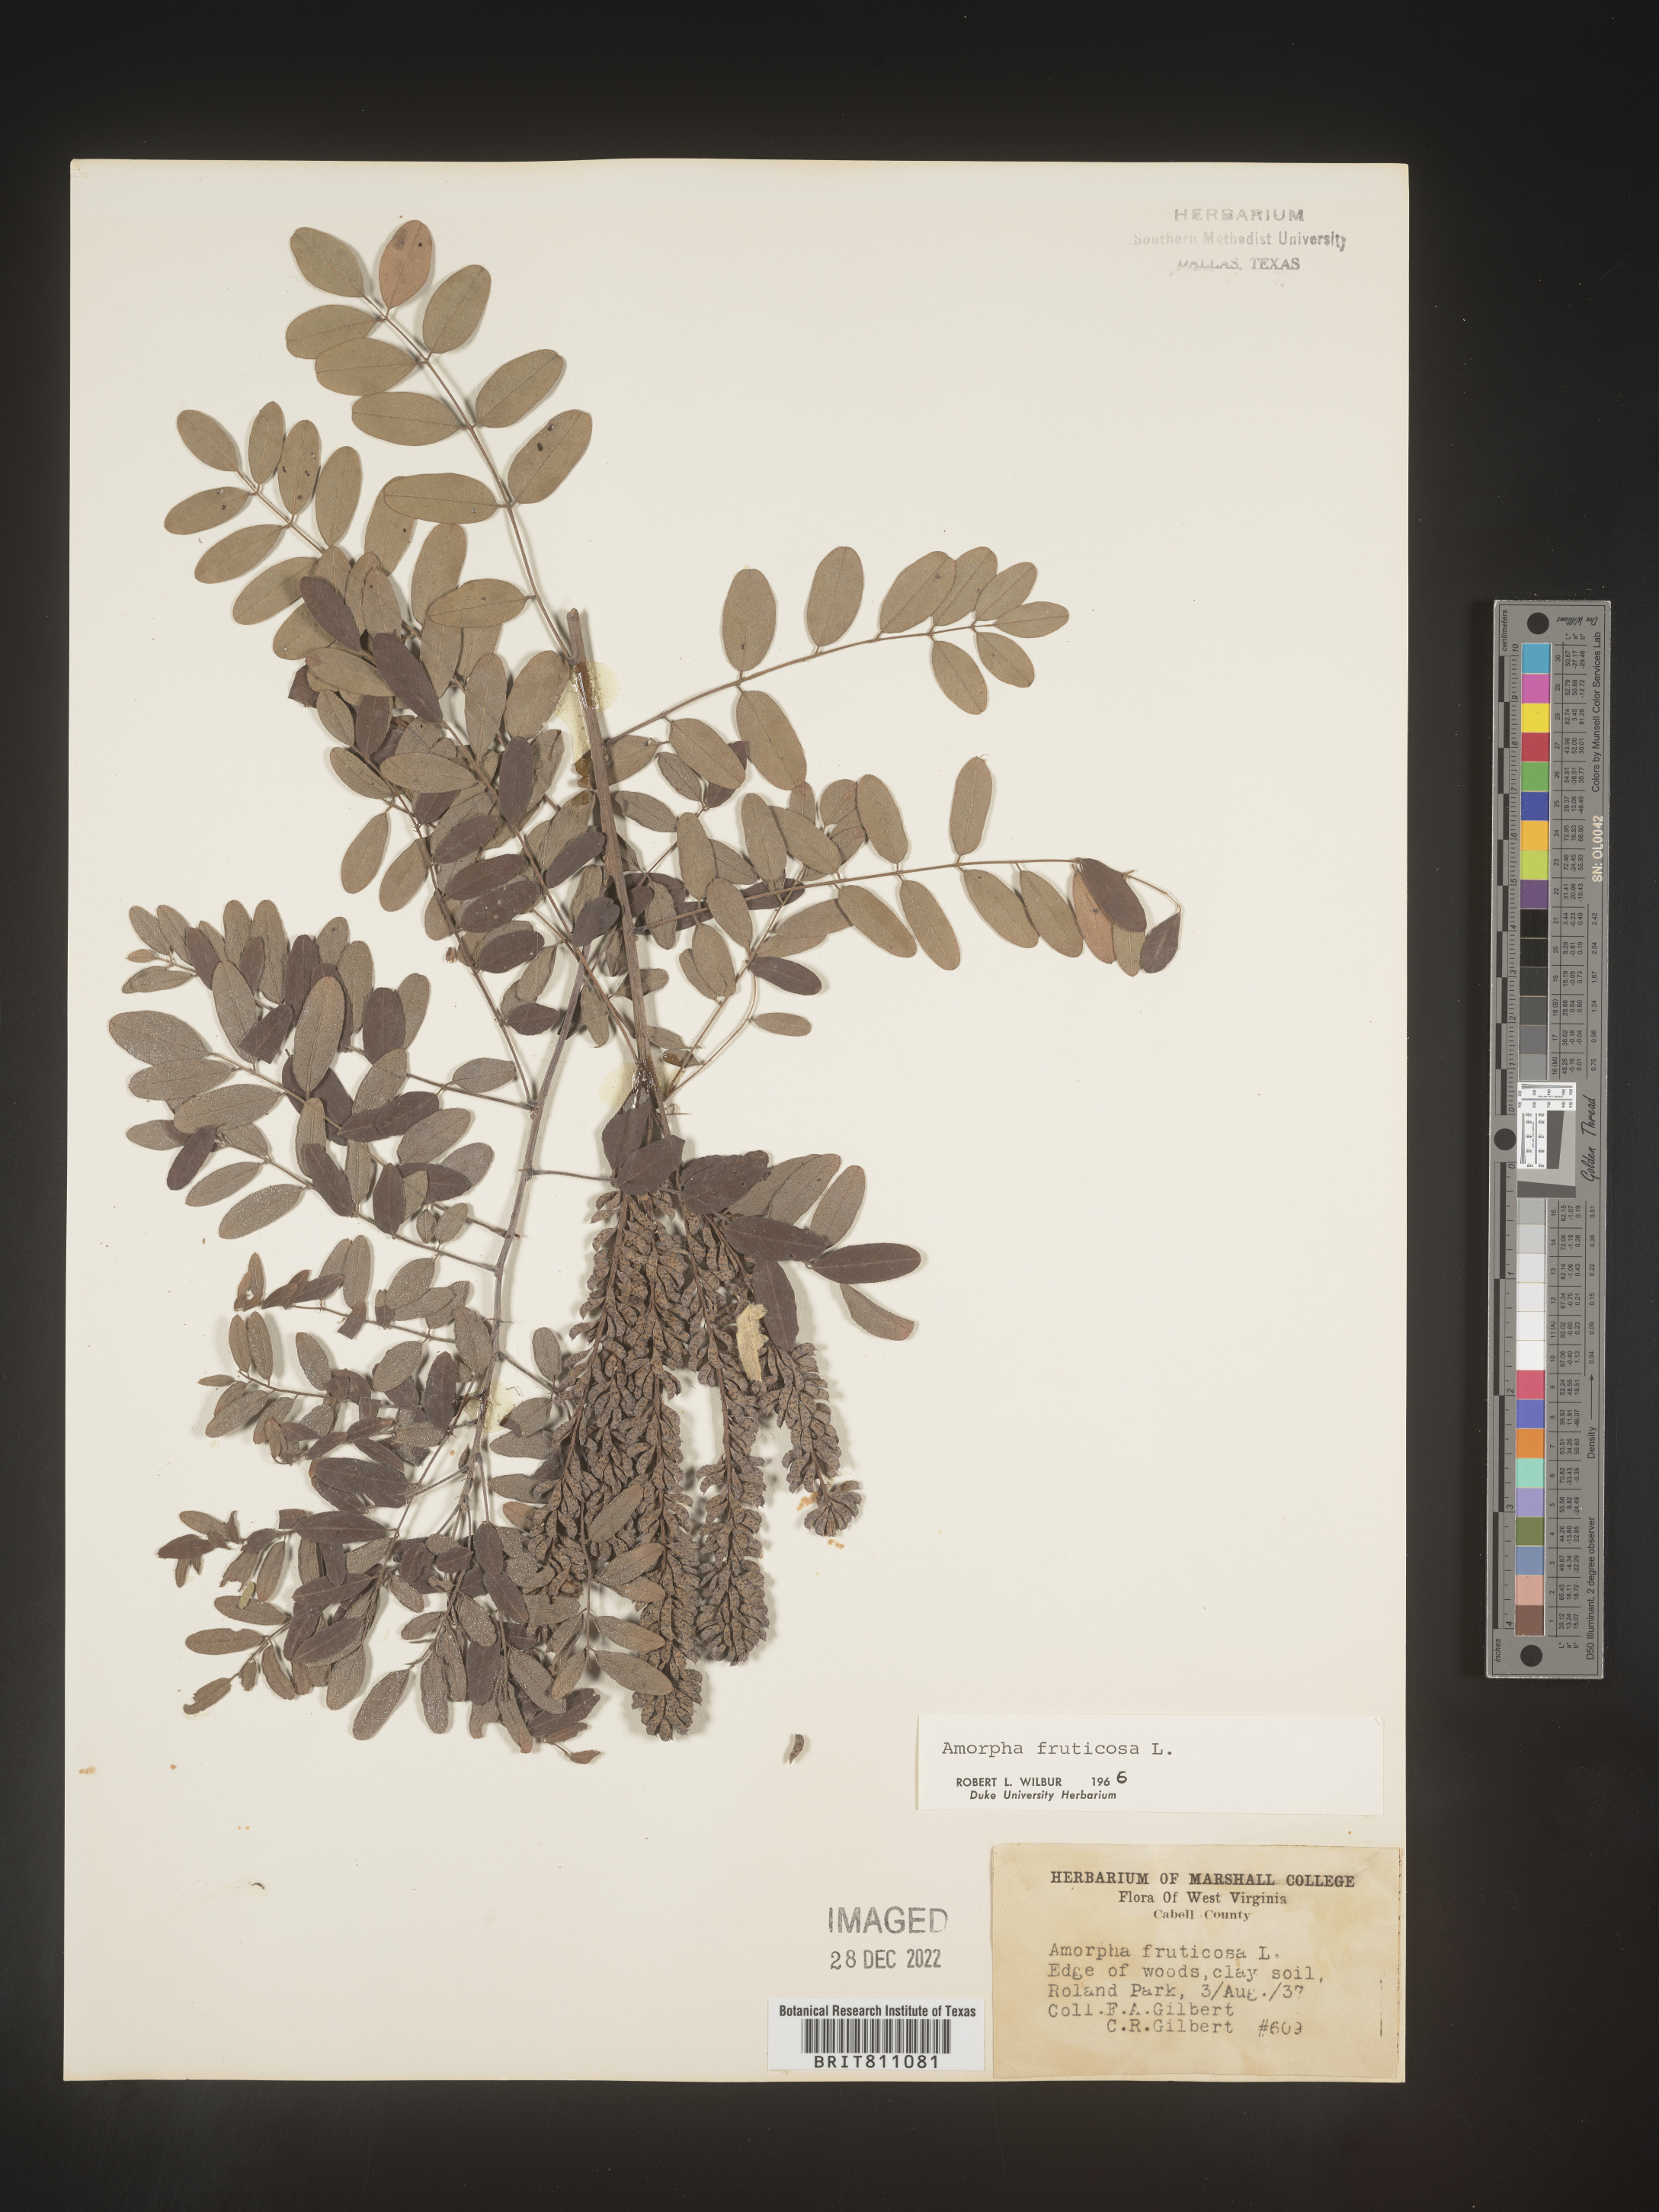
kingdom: Plantae
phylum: Tracheophyta
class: Magnoliopsida
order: Fabales
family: Fabaceae
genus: Amorpha
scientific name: Amorpha fruticosa
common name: False indigo
